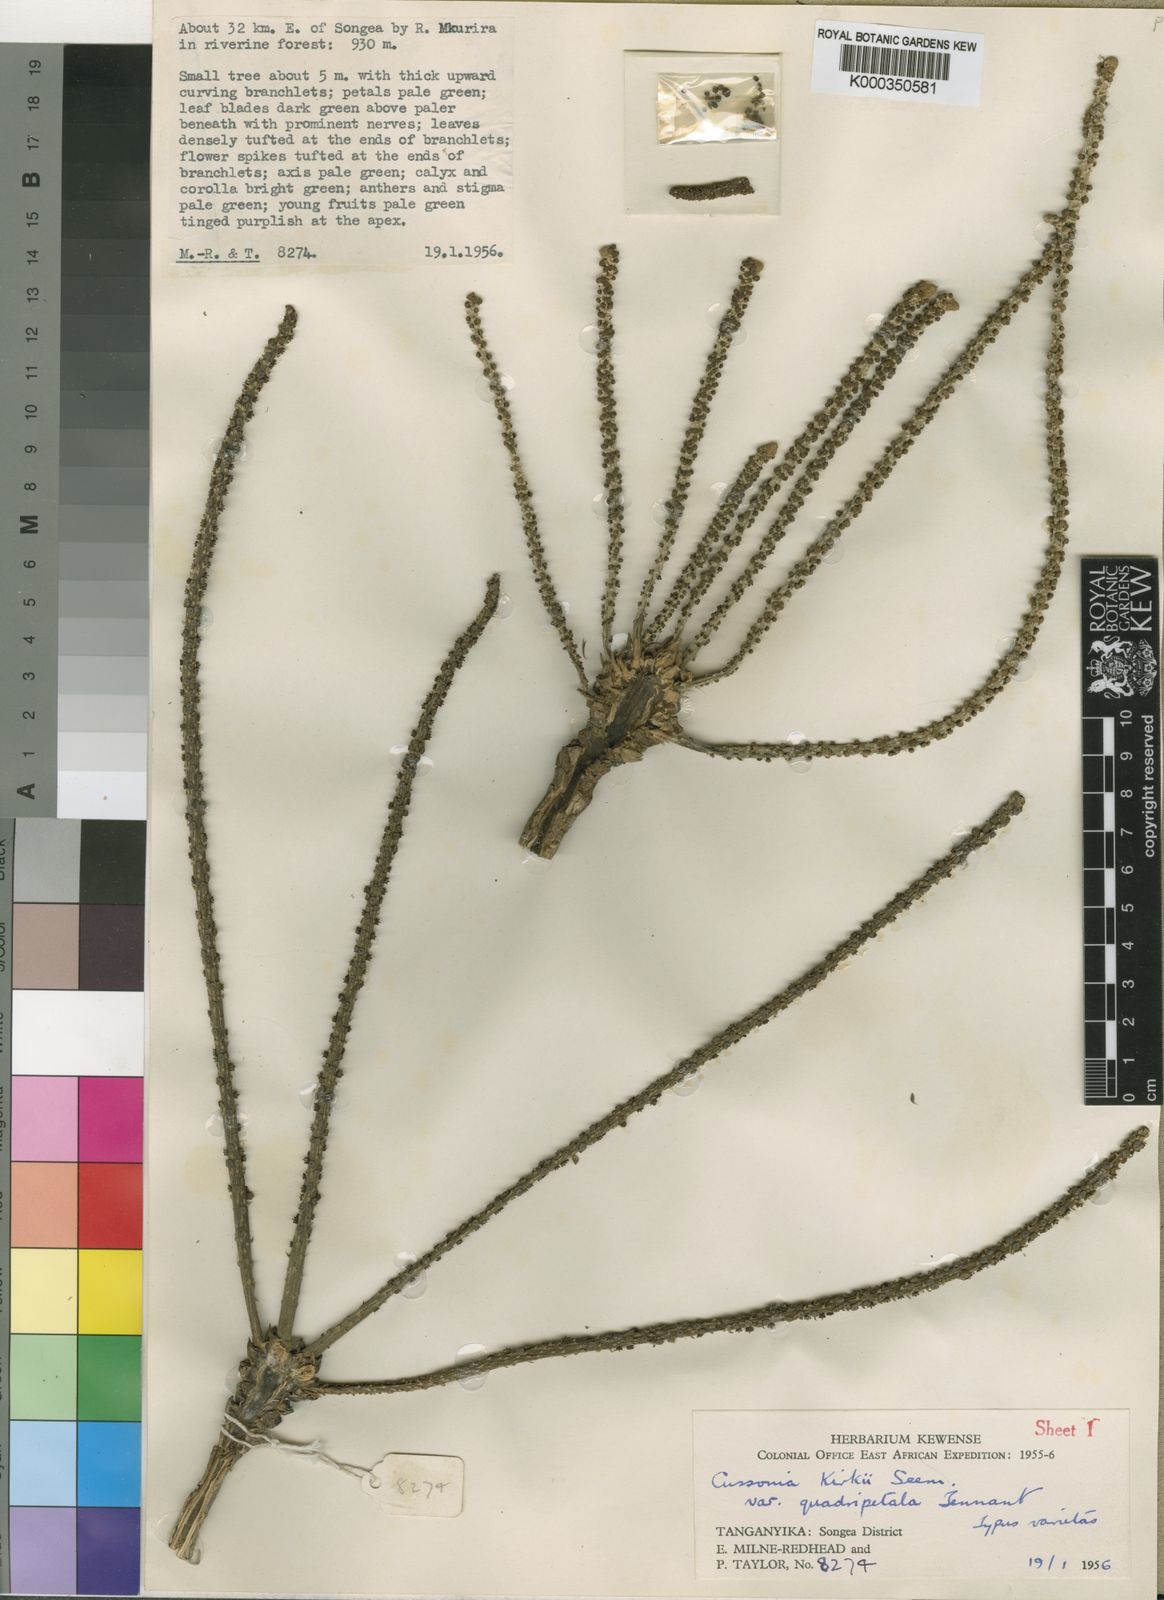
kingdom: Plantae
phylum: Tracheophyta
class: Magnoliopsida
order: Apiales
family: Araliaceae
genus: Cussonia
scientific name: Cussonia arborea
